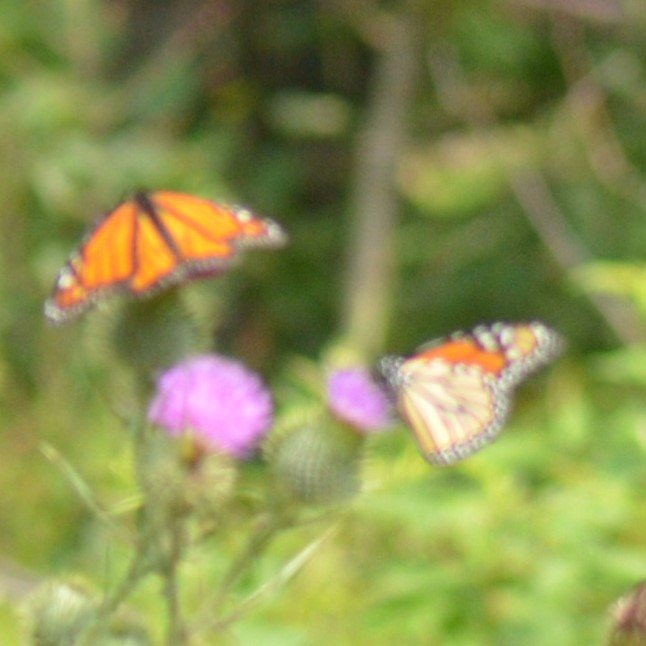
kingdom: Animalia
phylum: Arthropoda
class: Insecta
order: Lepidoptera
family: Nymphalidae
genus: Danaus
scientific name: Danaus plexippus
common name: Monarch
